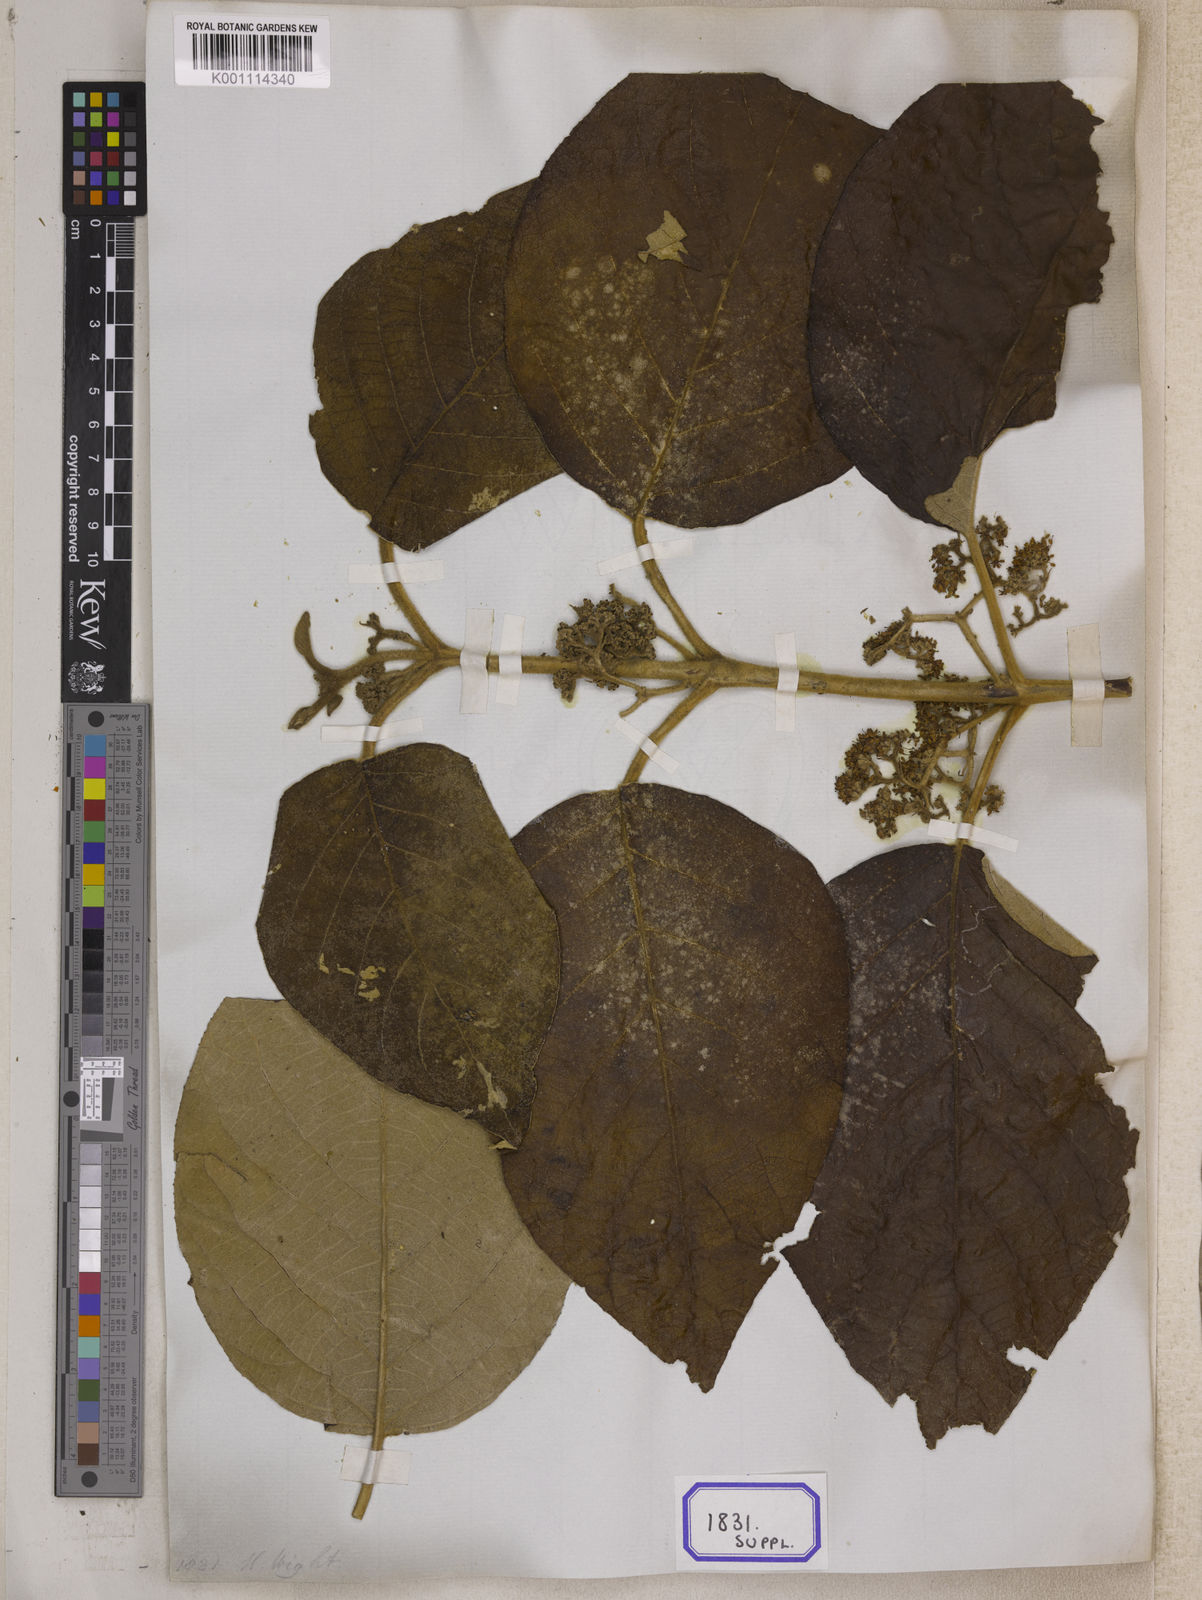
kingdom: Plantae
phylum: Tracheophyta
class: Magnoliopsida
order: Lamiales
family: Lamiaceae
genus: Callicarpa
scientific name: Callicarpa
